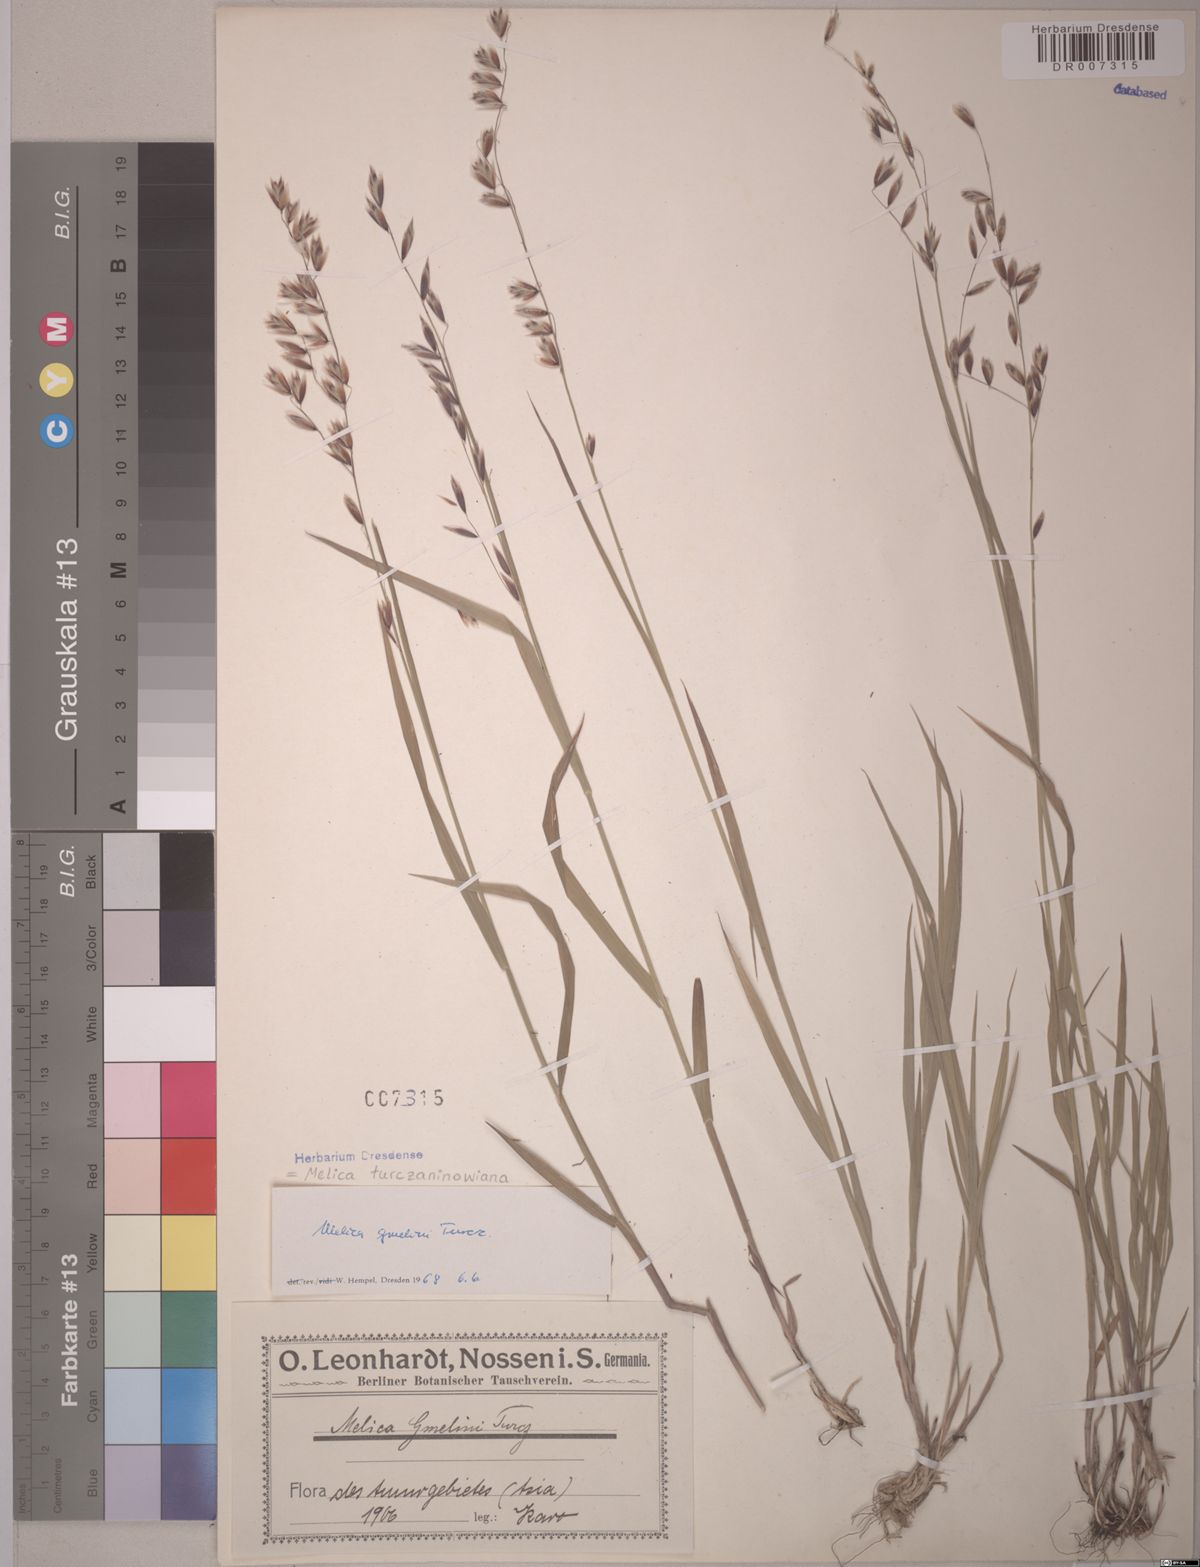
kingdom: Plantae
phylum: Tracheophyta
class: Liliopsida
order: Poales
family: Poaceae
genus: Melica
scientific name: Melica turczaninowiana
